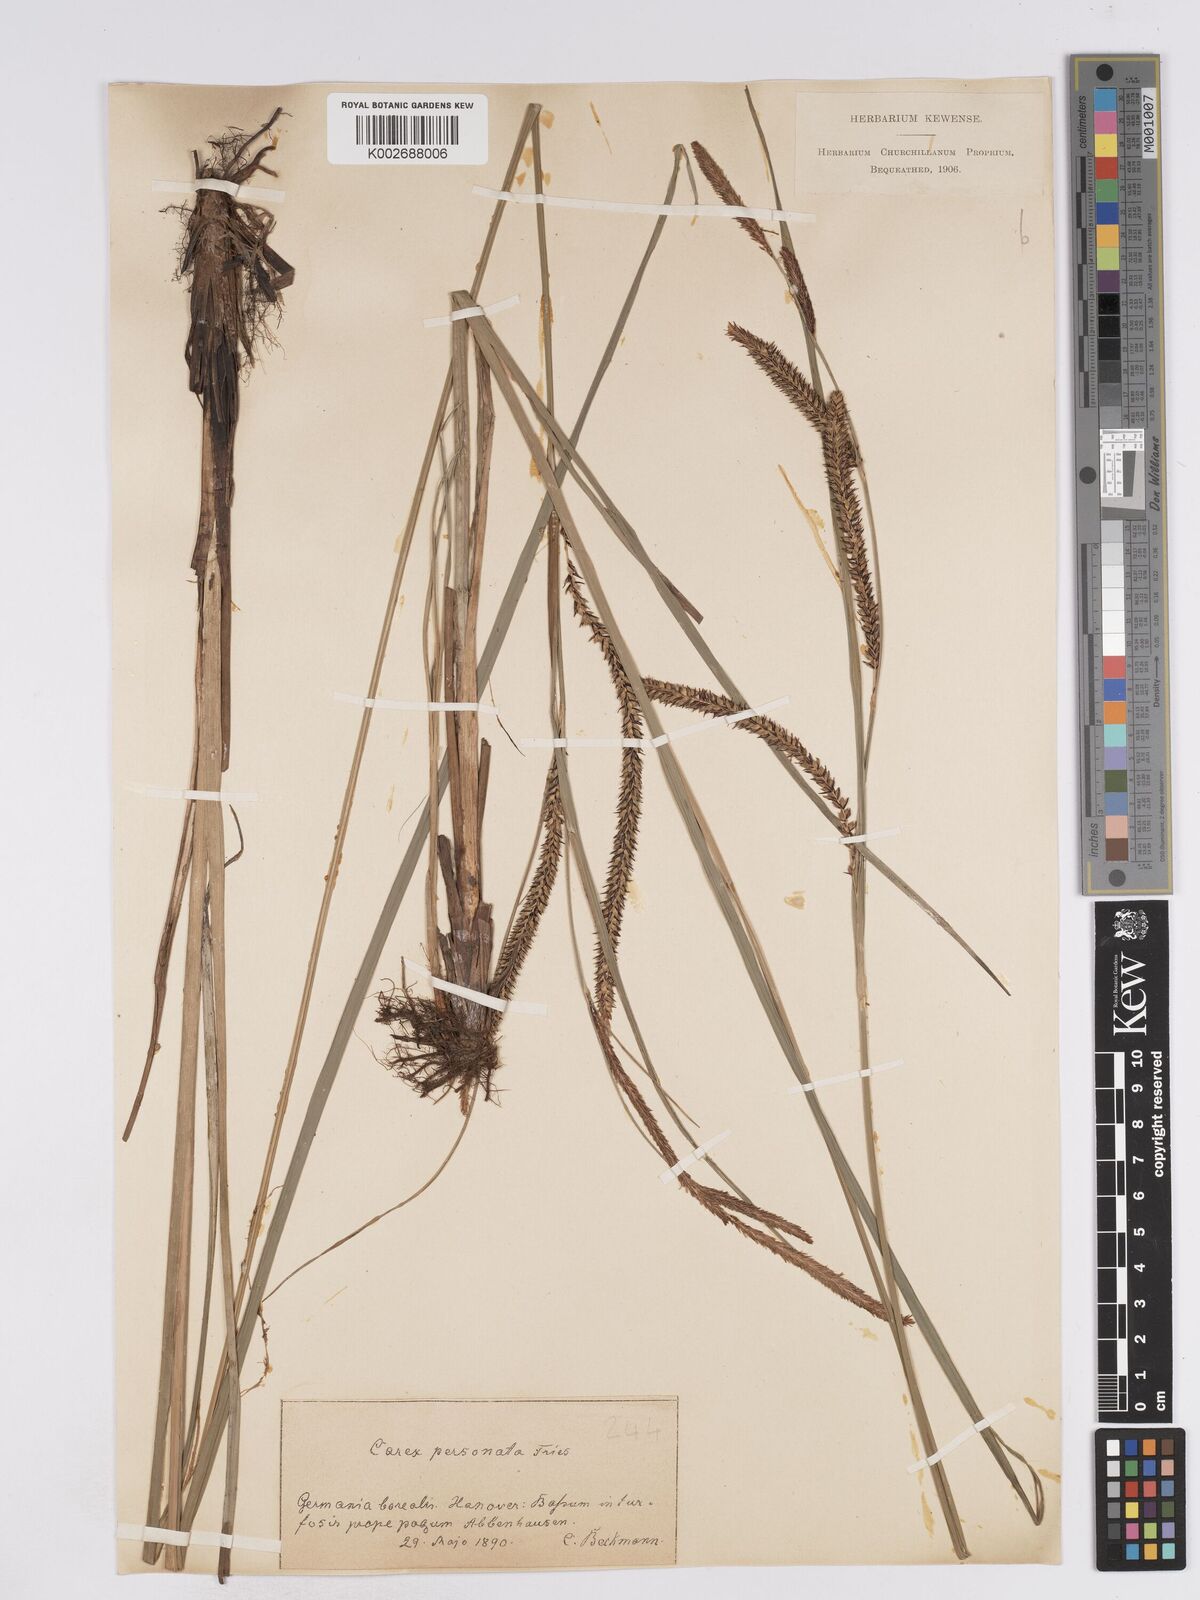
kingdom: Plantae
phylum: Tracheophyta
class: Liliopsida
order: Poales
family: Cyperaceae
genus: Carex
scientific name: Carex acuta
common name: Slender tufted-sedge
